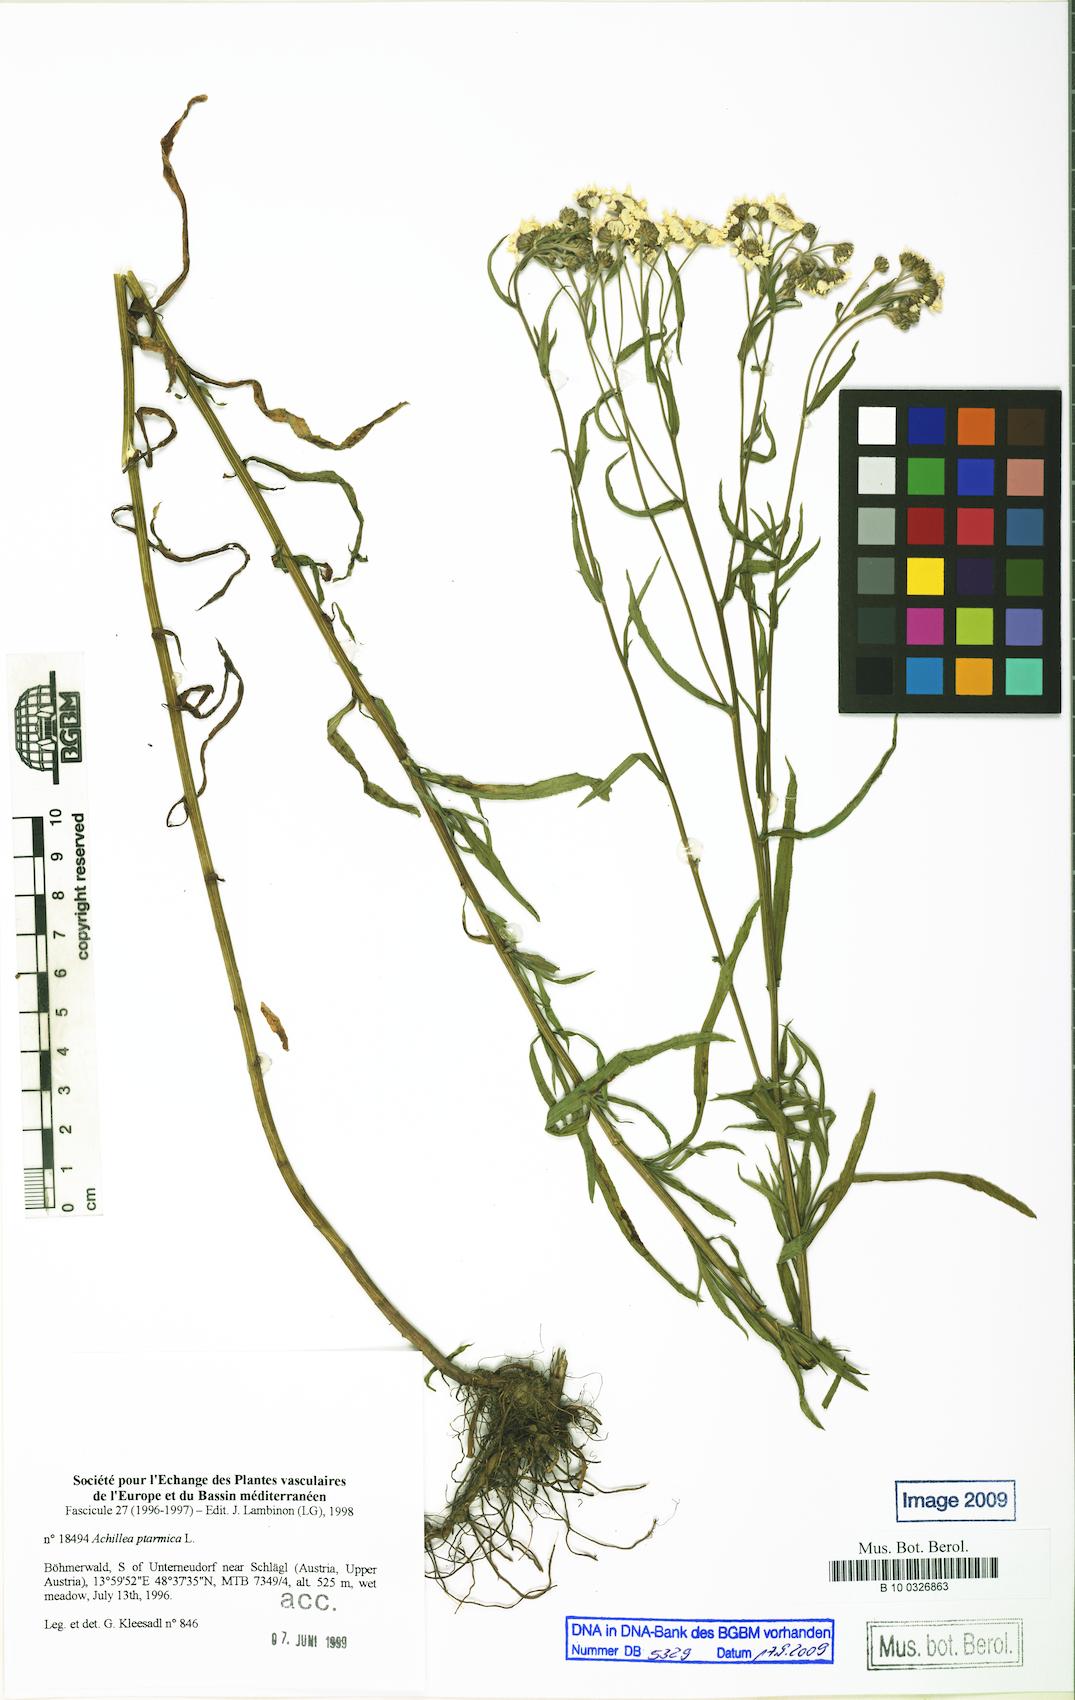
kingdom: Plantae
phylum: Tracheophyta
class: Magnoliopsida
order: Asterales
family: Asteraceae
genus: Achillea
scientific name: Achillea ptarmica
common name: Sneezeweed
